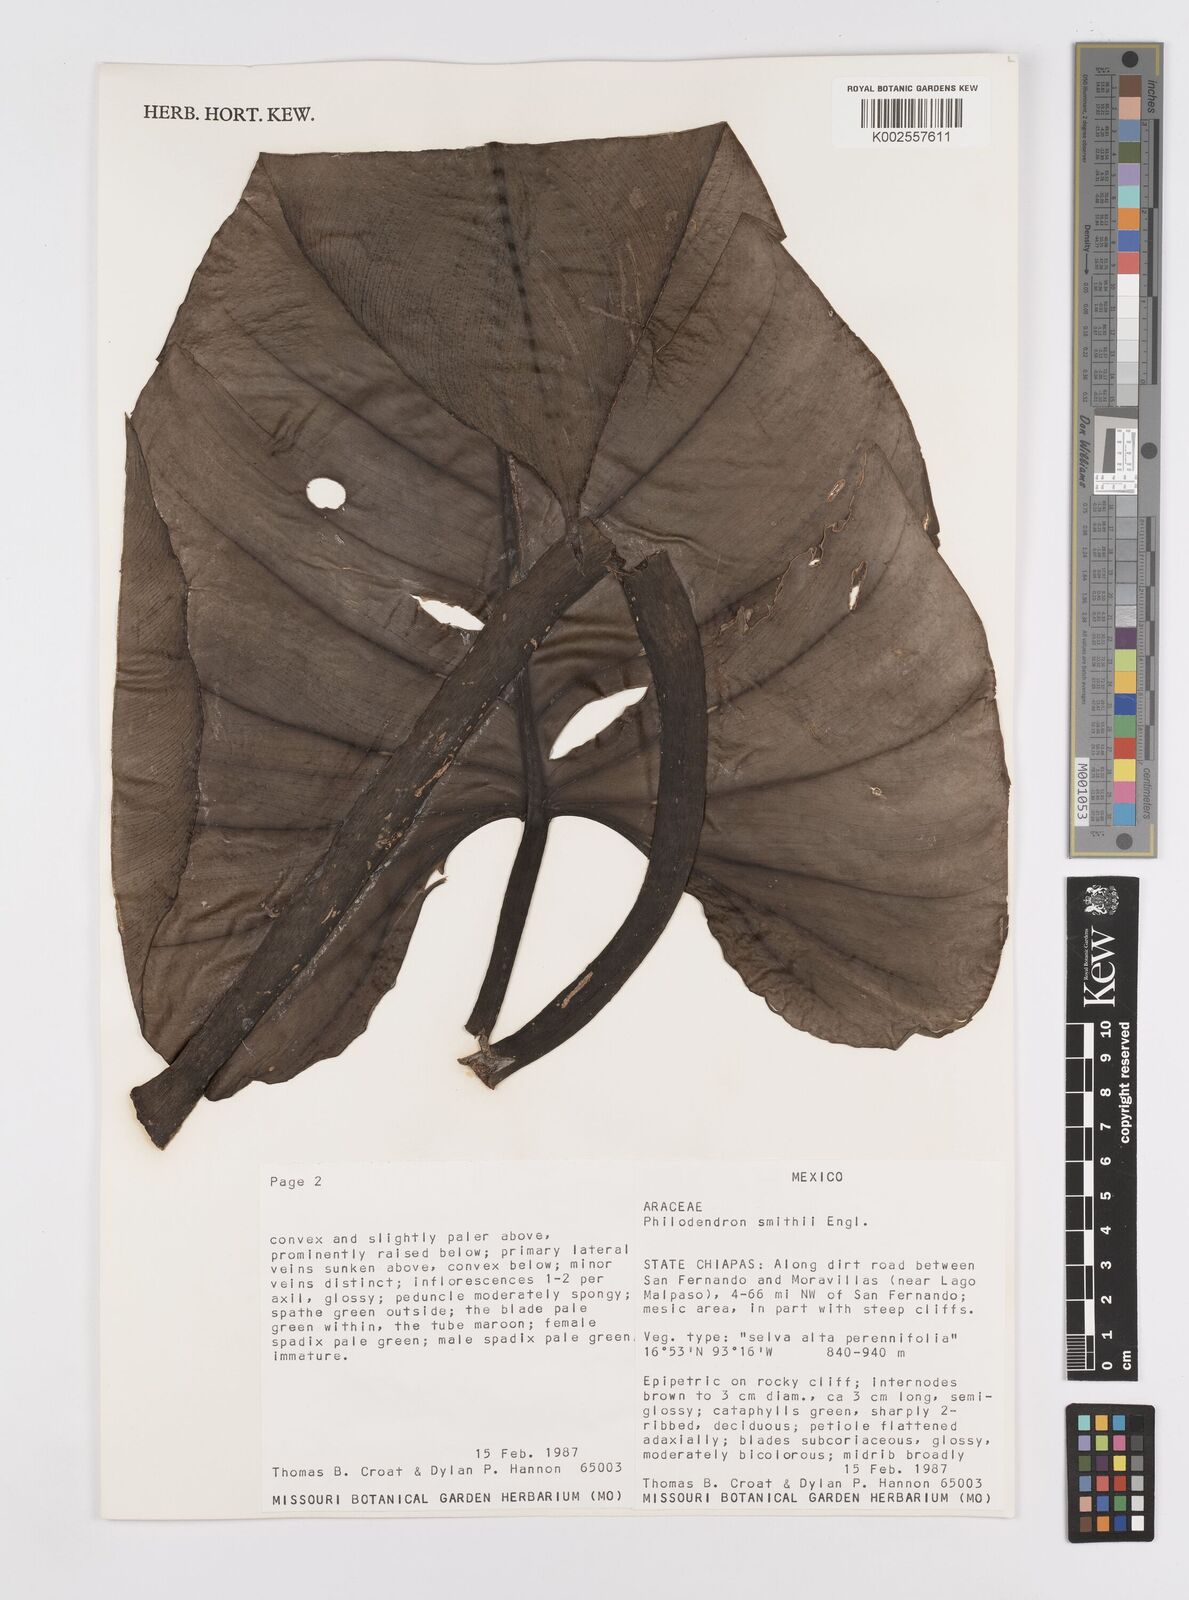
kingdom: Plantae
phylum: Tracheophyta
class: Liliopsida
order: Alismatales
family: Araceae
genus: Philodendron
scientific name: Philodendron smithii
